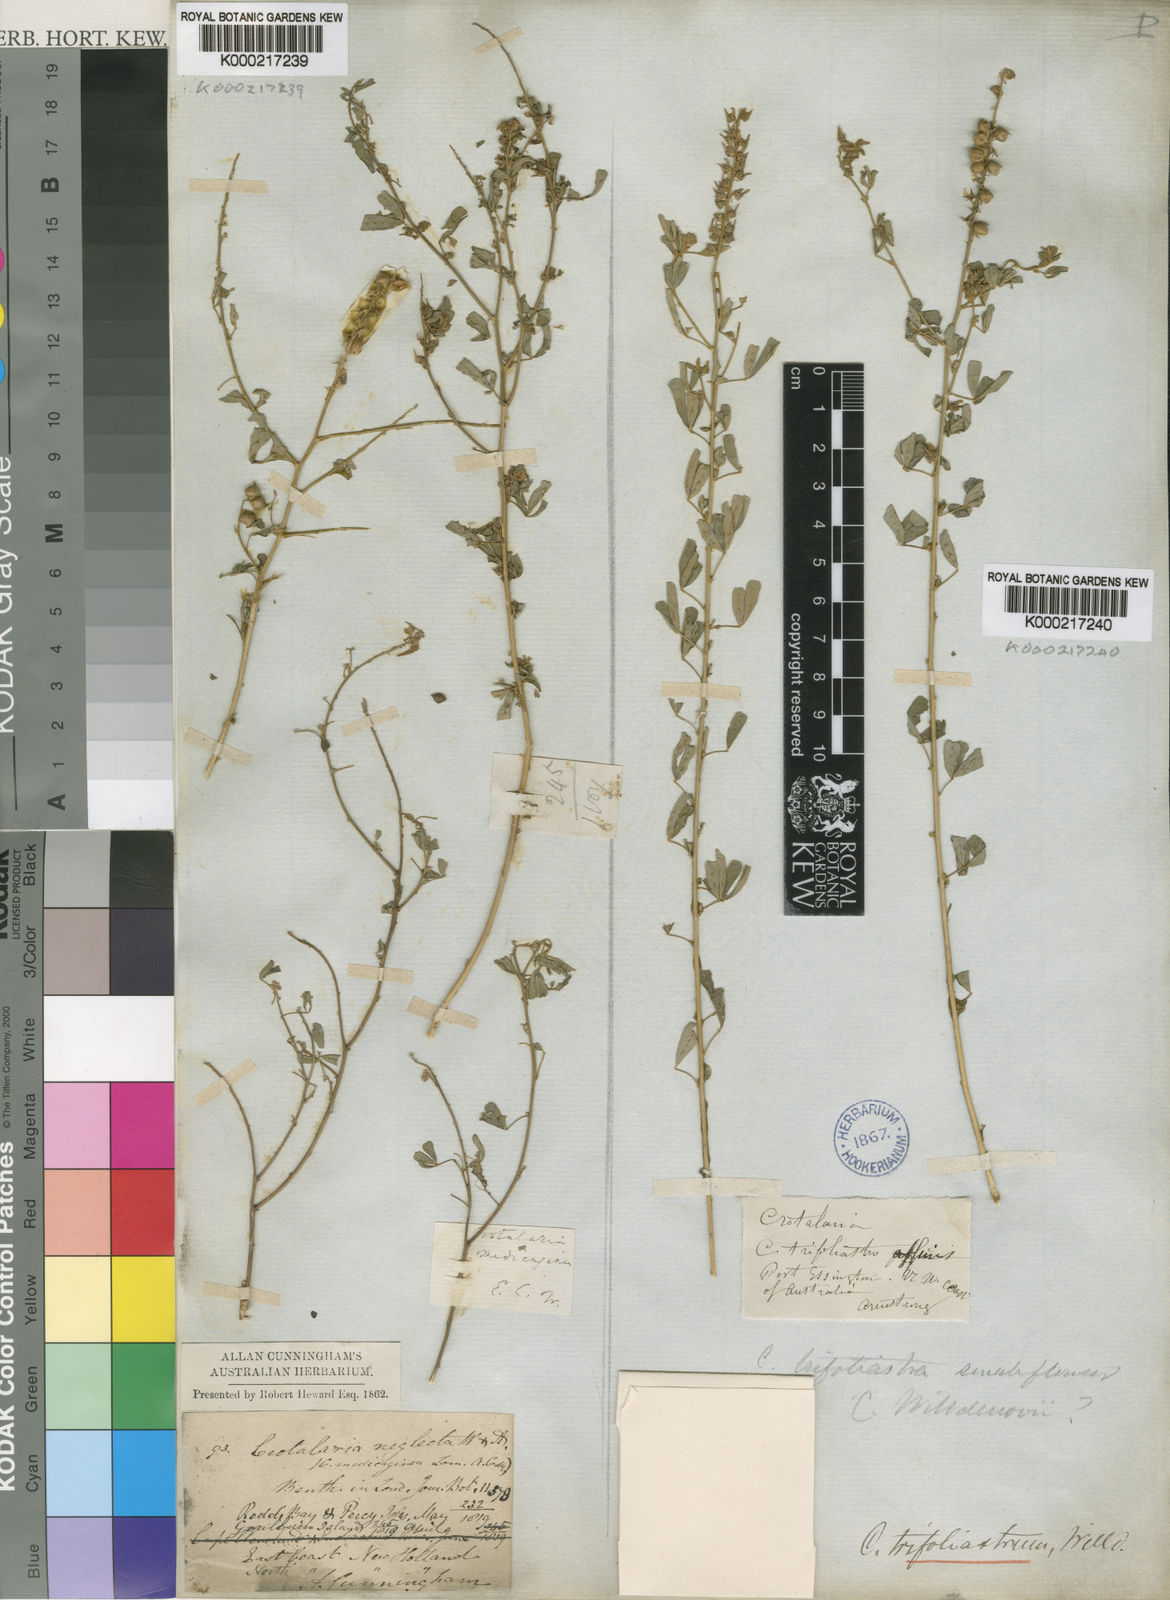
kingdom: Plantae
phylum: Tracheophyta
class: Magnoliopsida
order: Fabales
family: Fabaceae
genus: Crotalaria
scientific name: Crotalaria medicaginea
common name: Trefoil rattlepod
